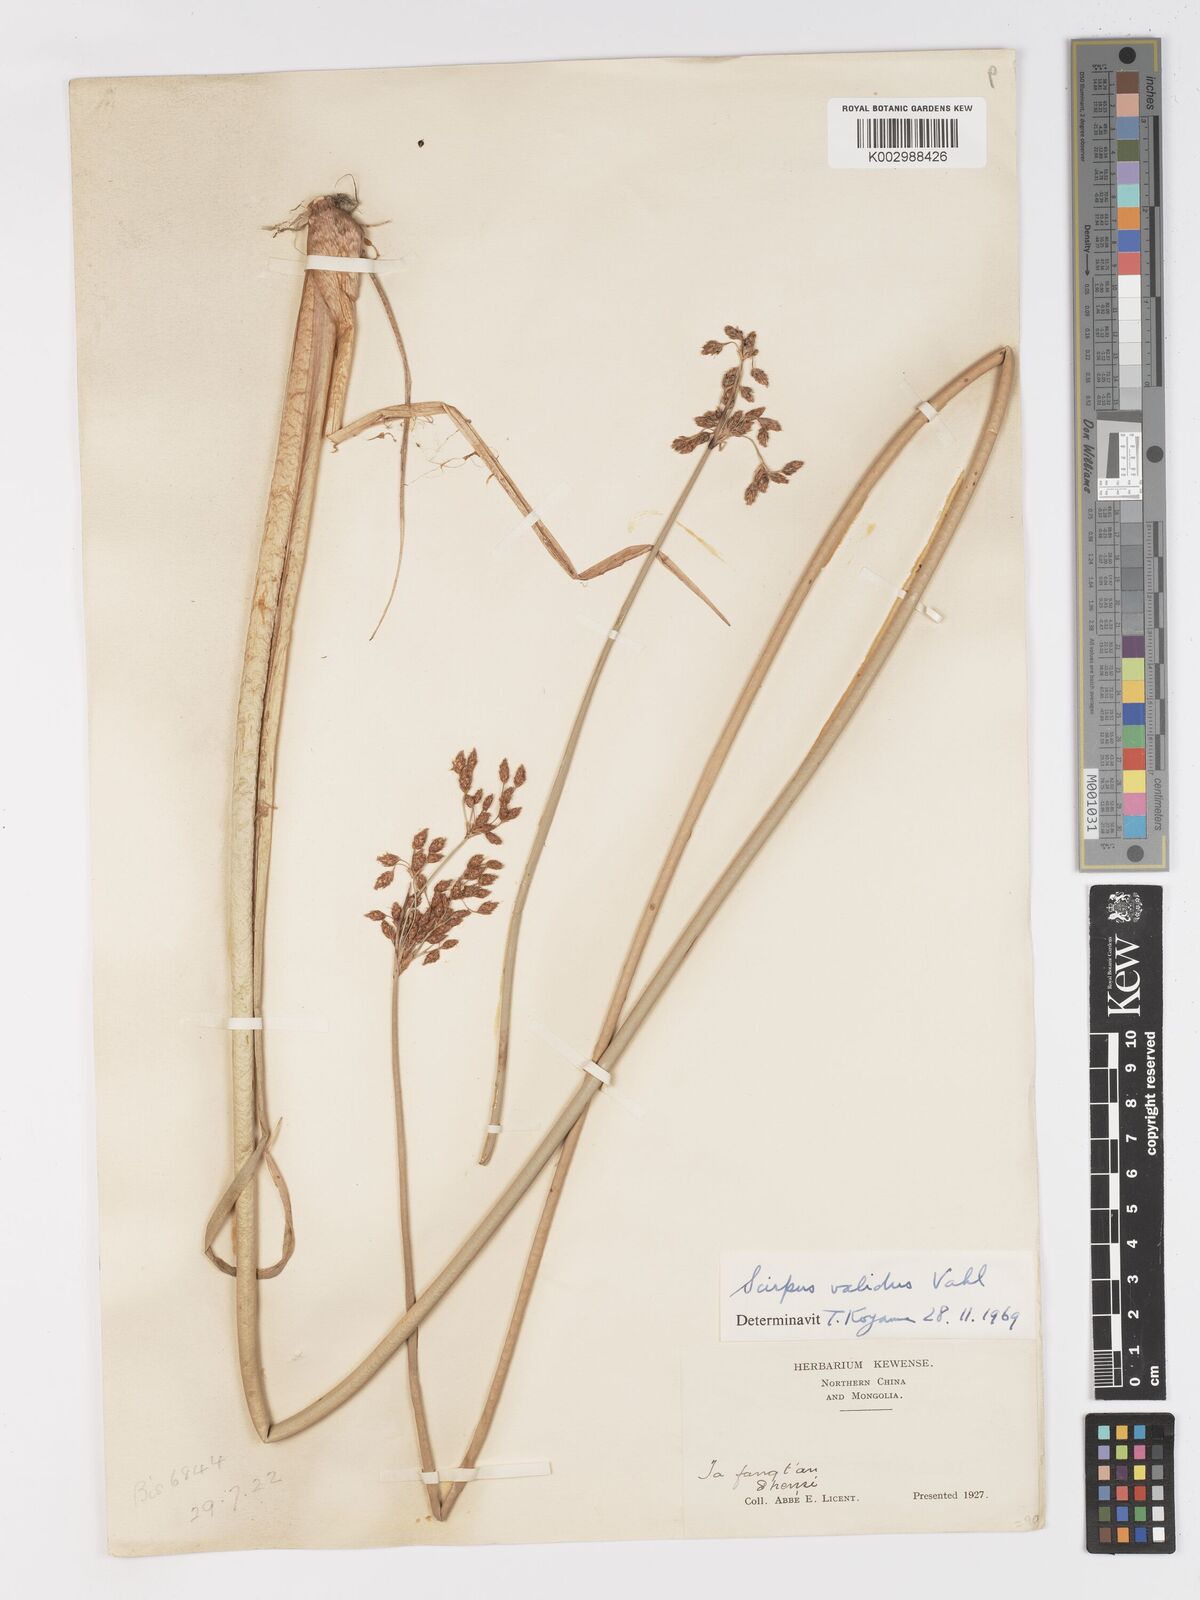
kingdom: Plantae
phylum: Tracheophyta
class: Liliopsida
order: Poales
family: Cyperaceae
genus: Schoenoplectus
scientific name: Schoenoplectus lacustris
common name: Common club-rush
